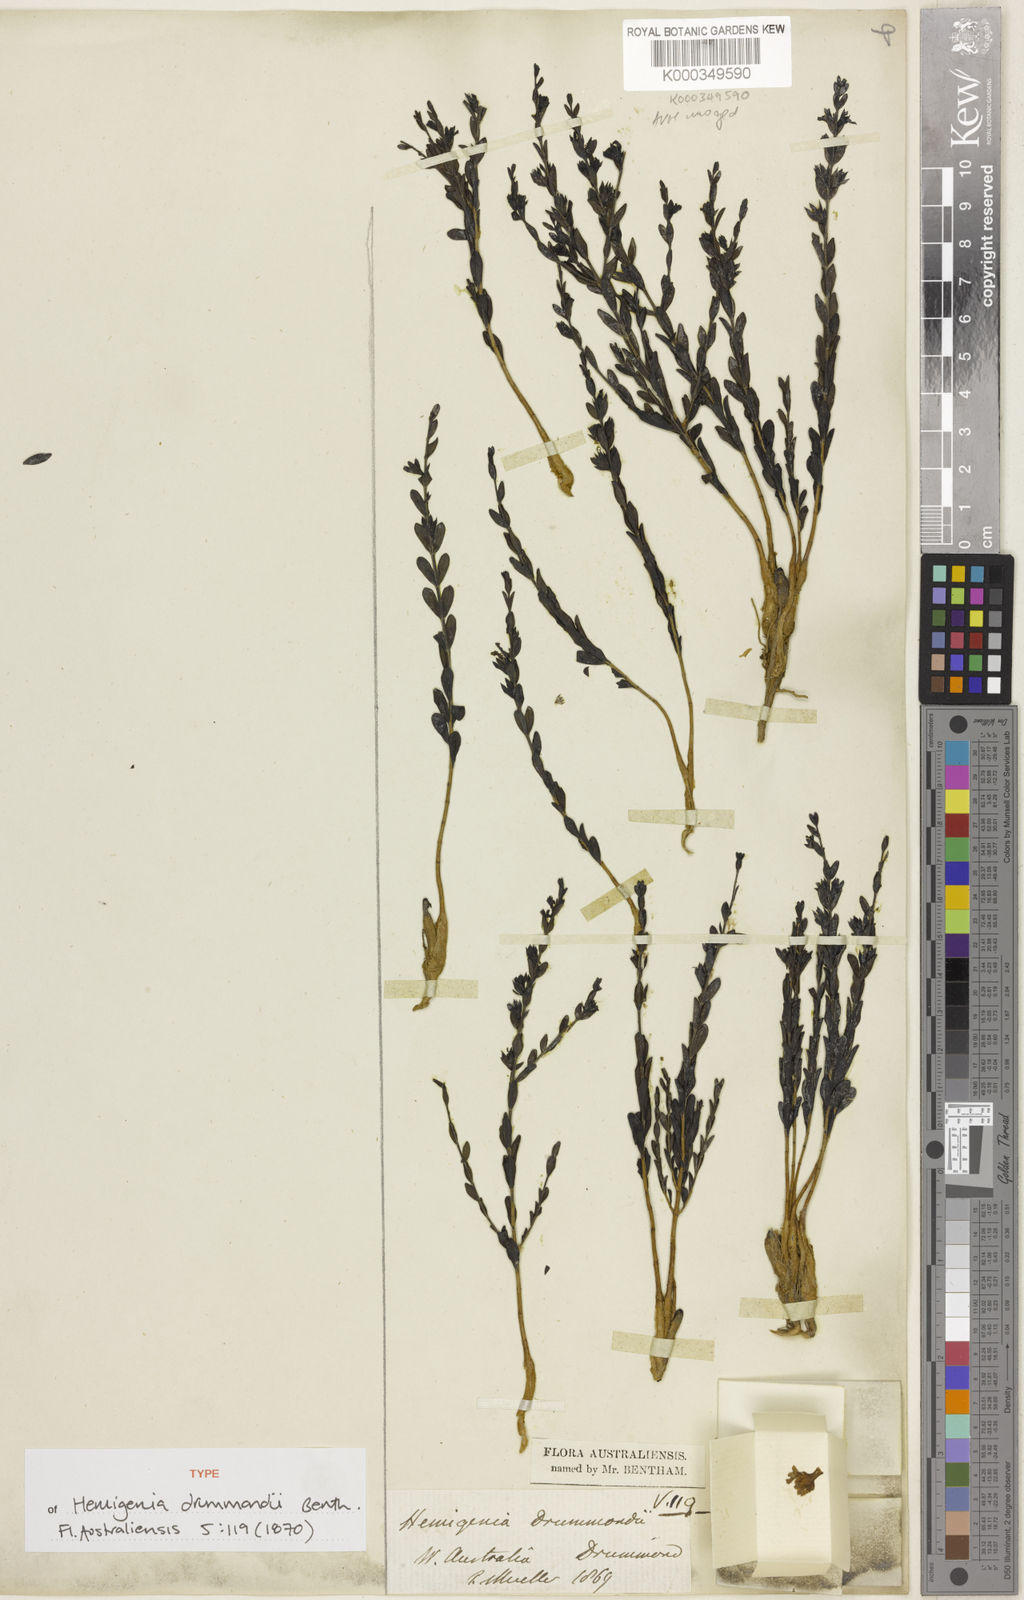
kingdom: Plantae
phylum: Tracheophyta
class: Magnoliopsida
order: Lamiales
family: Lamiaceae
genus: Hemigenia
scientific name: Hemigenia drummondii
